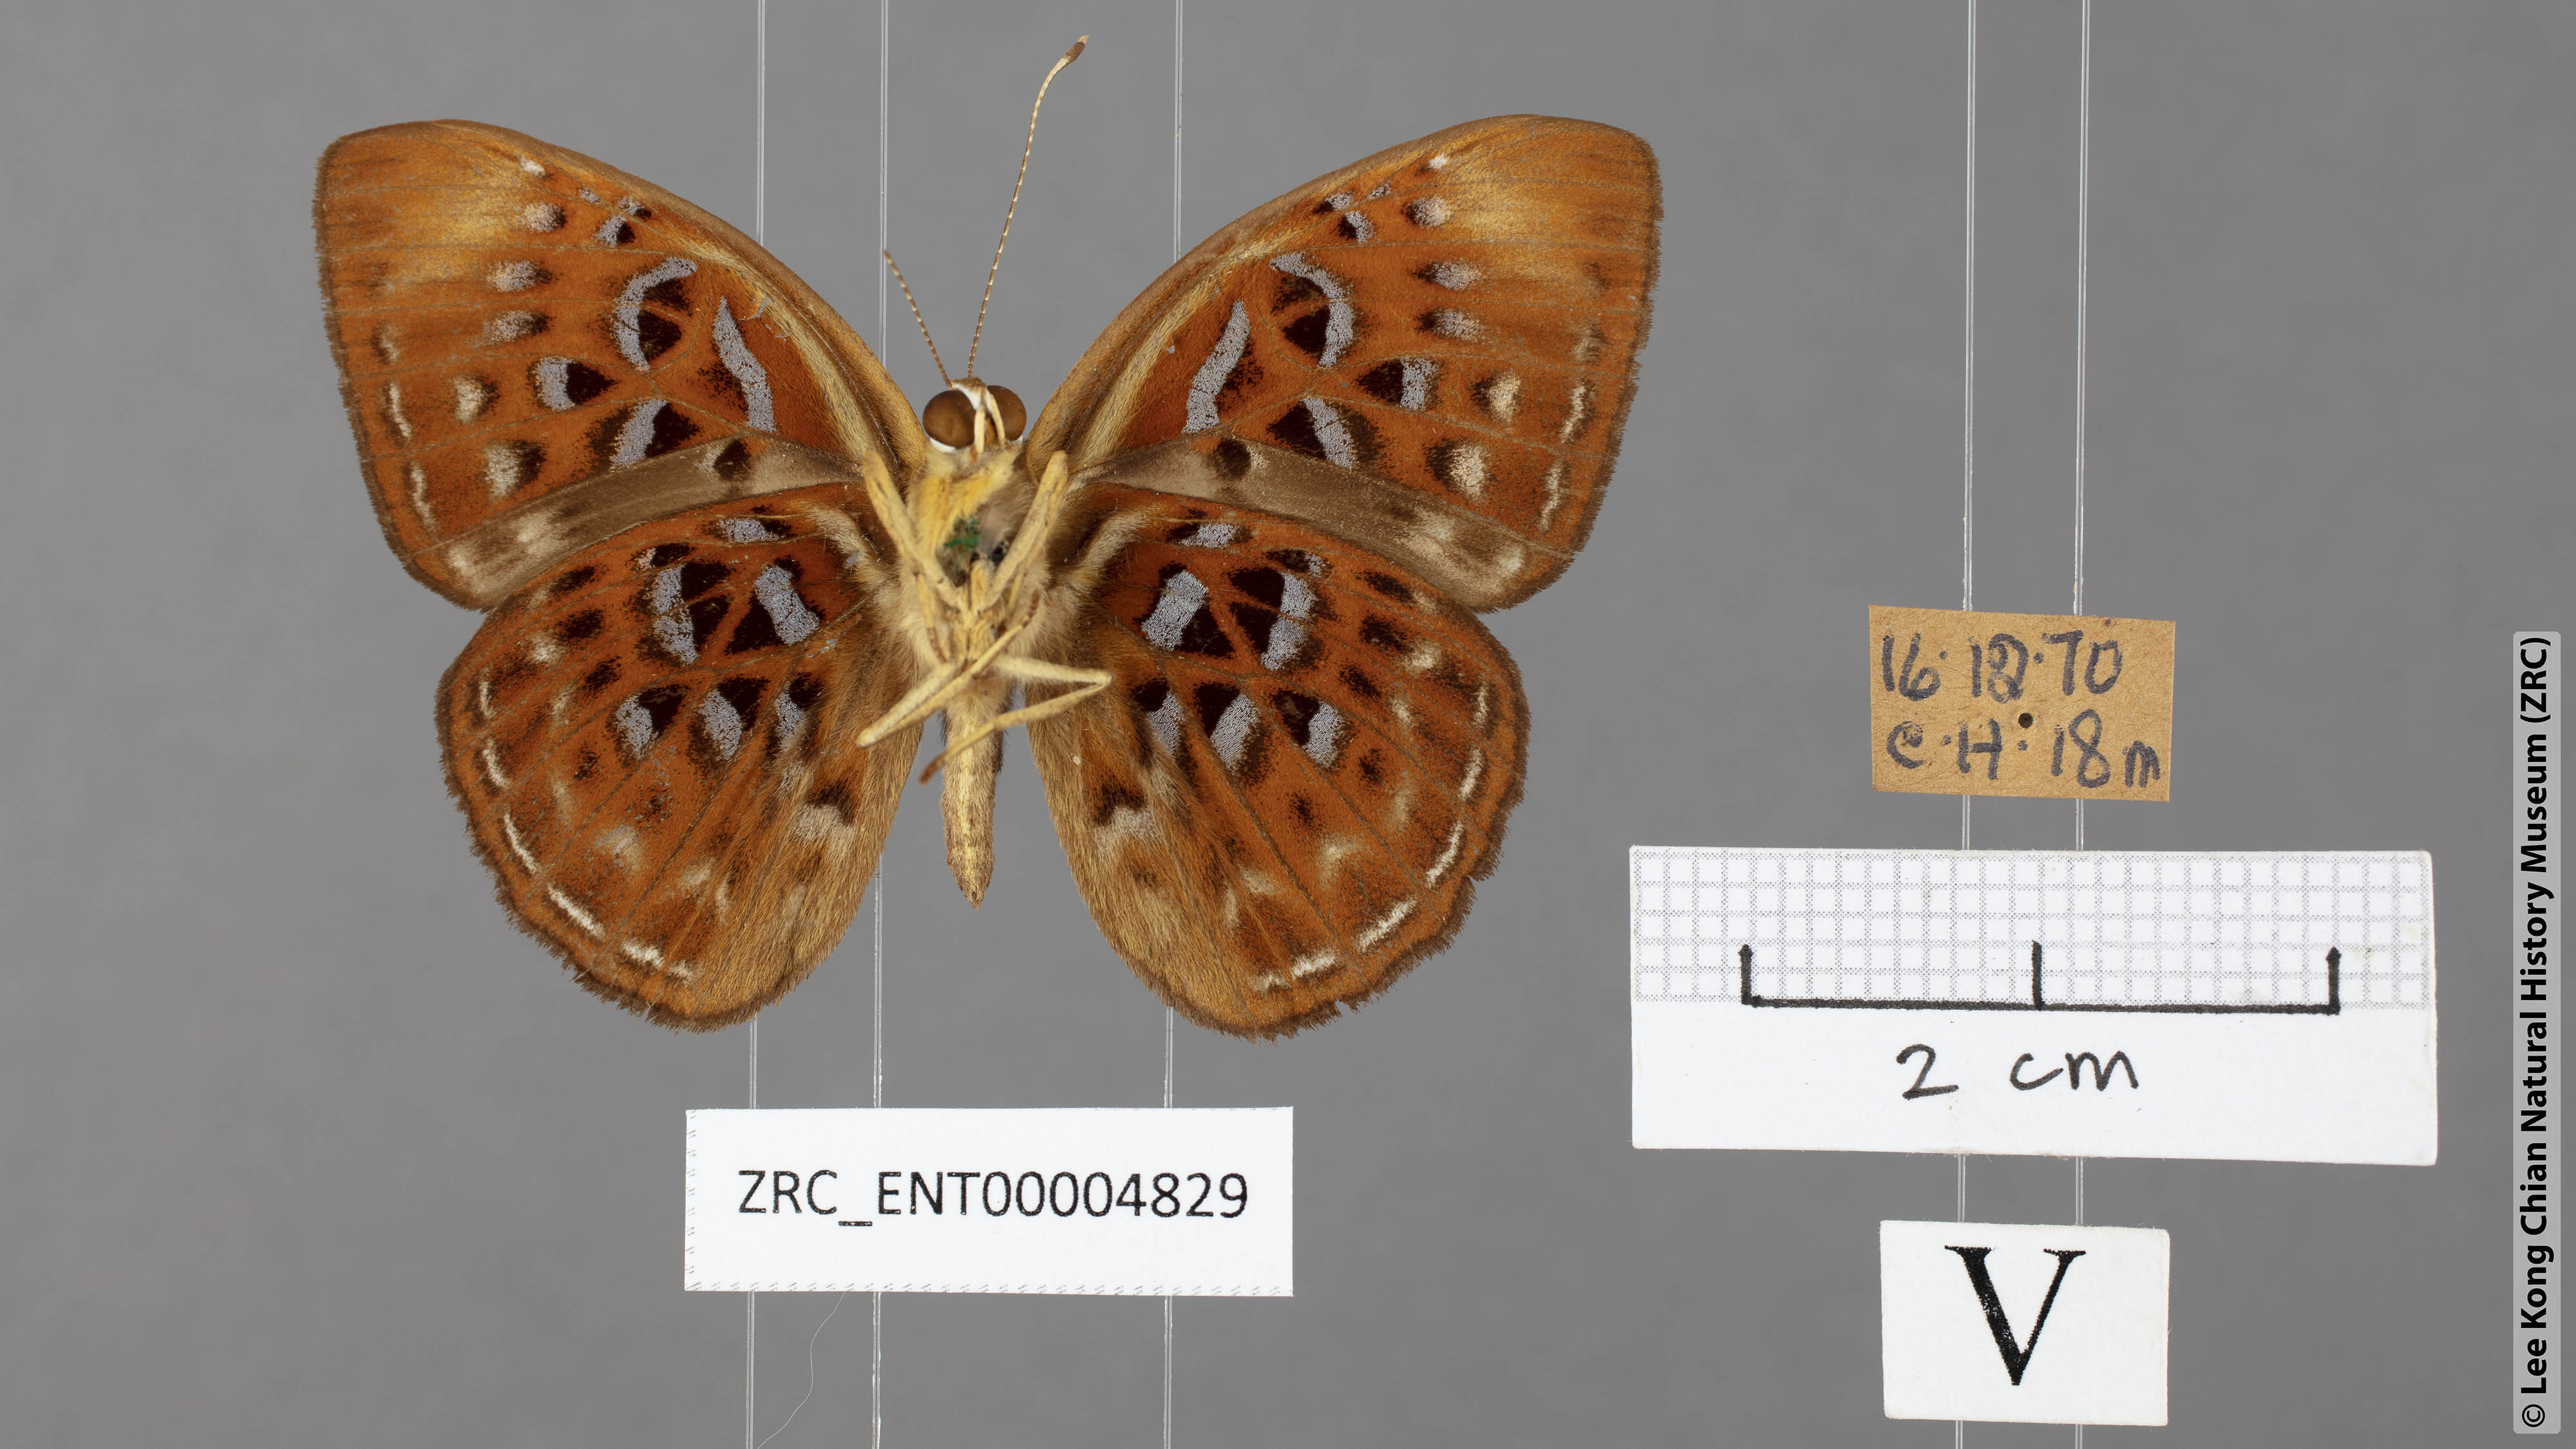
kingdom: Animalia
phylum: Arthropoda
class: Insecta
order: Lepidoptera
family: Erebidae
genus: Dysschema
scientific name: Dysschema
